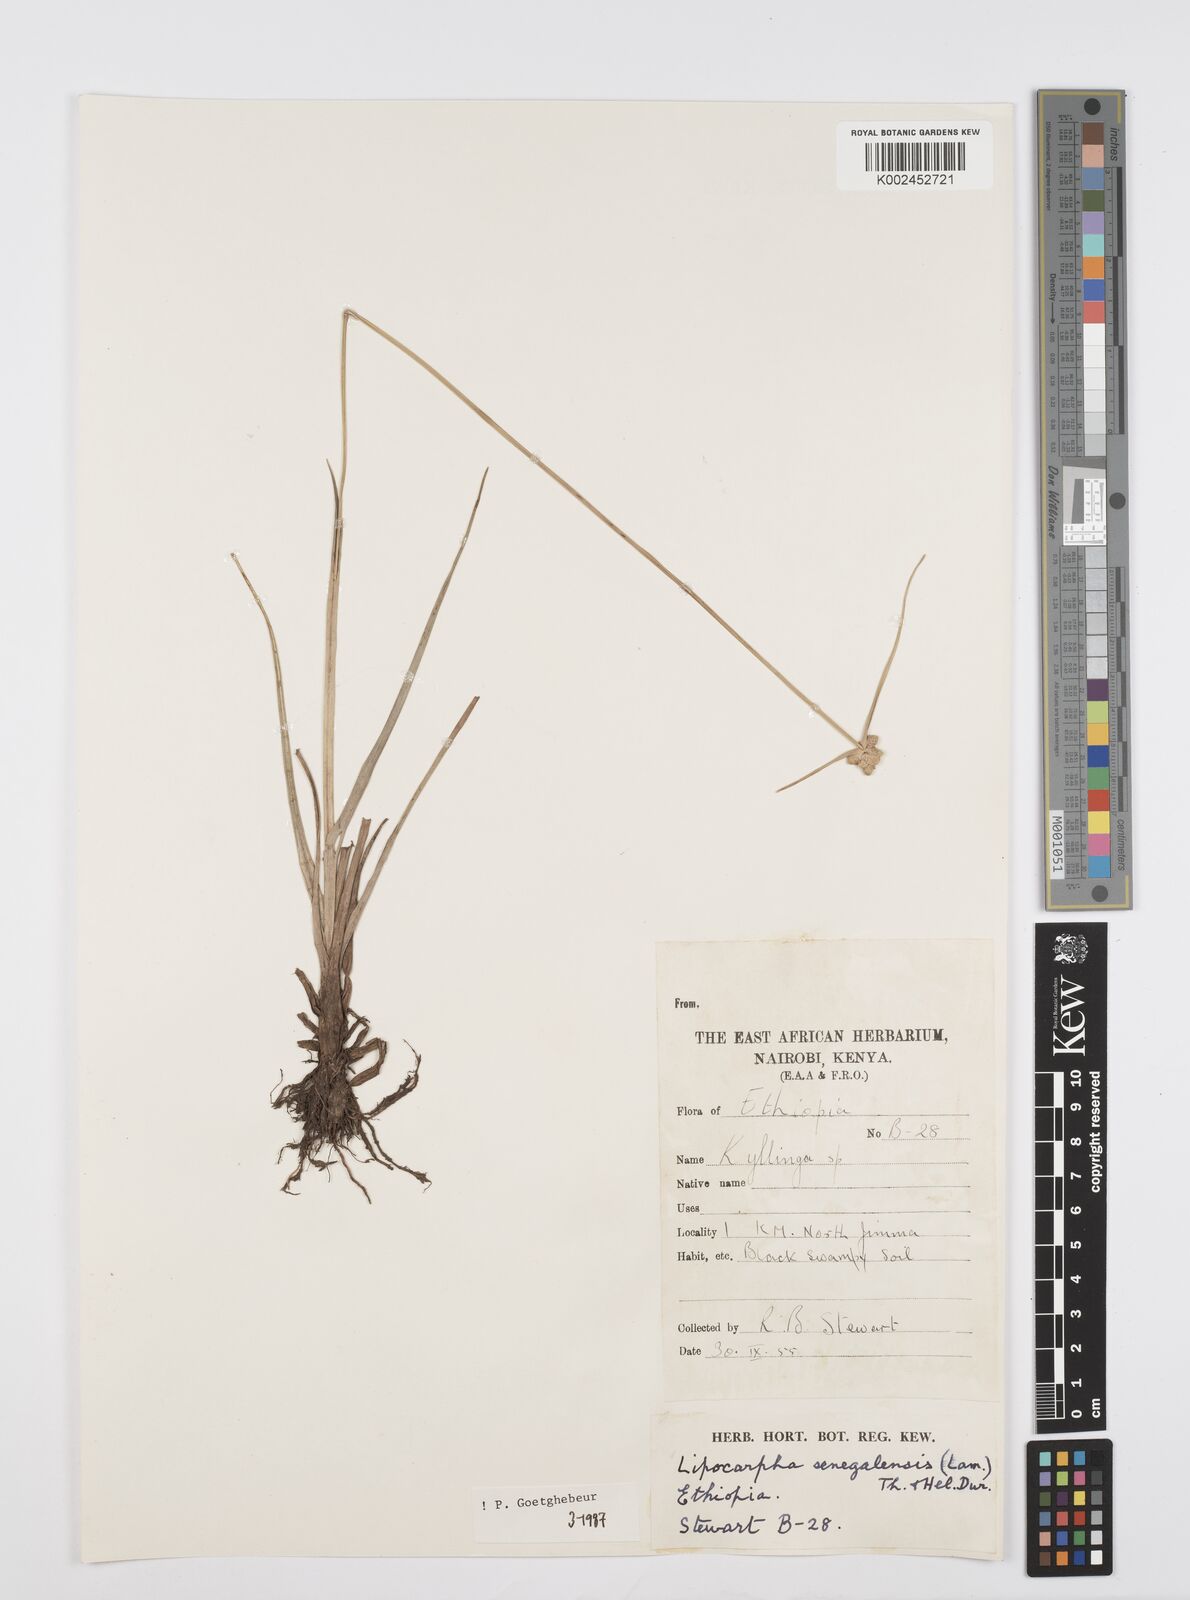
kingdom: Plantae
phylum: Tracheophyta
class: Liliopsida
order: Poales
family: Cyperaceae
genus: Cyperus
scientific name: Cyperus albescens
